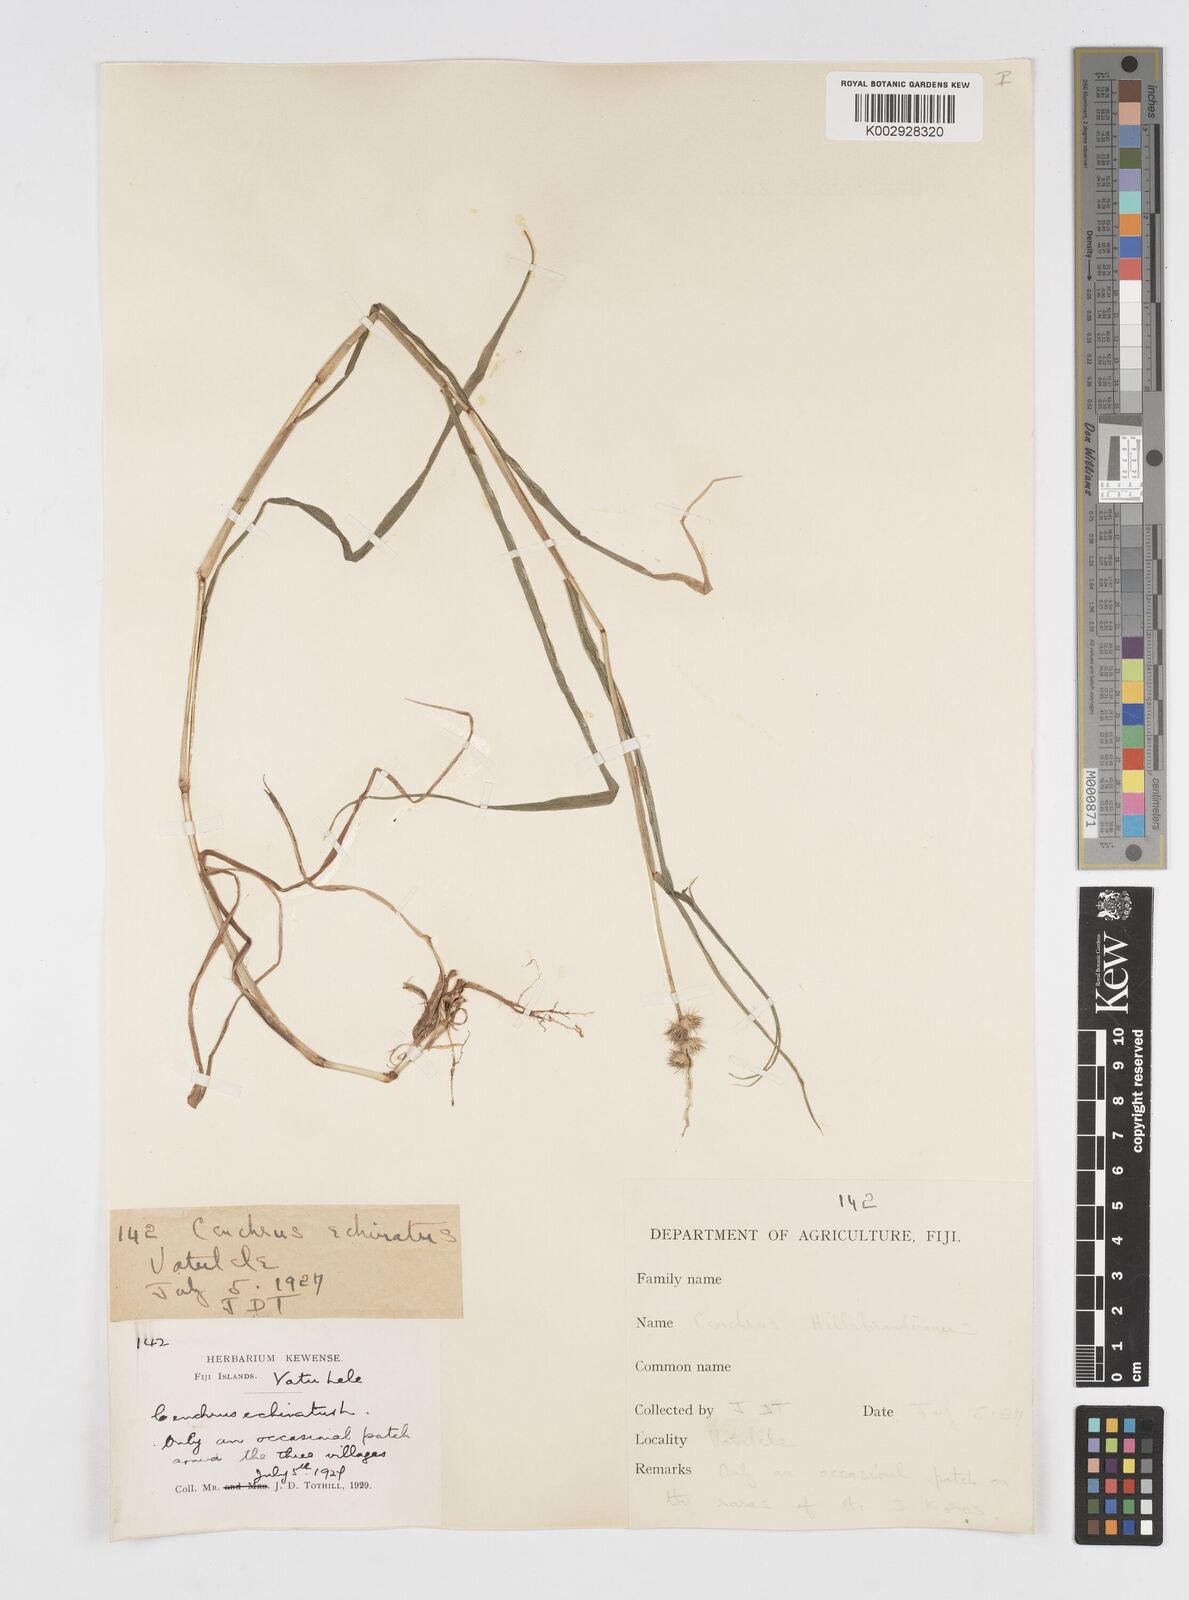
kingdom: Plantae
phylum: Tracheophyta
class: Liliopsida
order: Poales
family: Poaceae
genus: Cenchrus
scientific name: Cenchrus echinatus
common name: Southern sandbur
